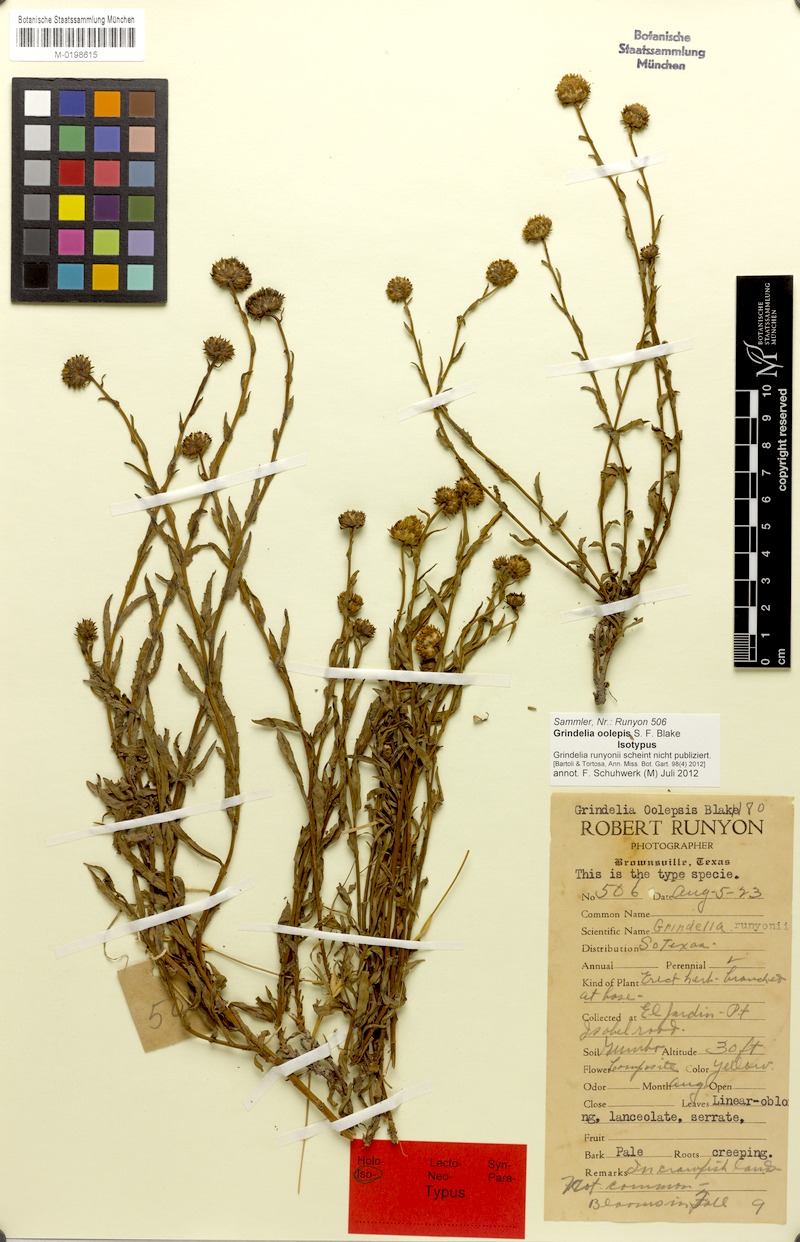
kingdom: Plantae
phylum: Tracheophyta
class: Magnoliopsida
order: Asterales
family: Asteraceae
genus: Grindelia
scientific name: Grindelia oolepis
